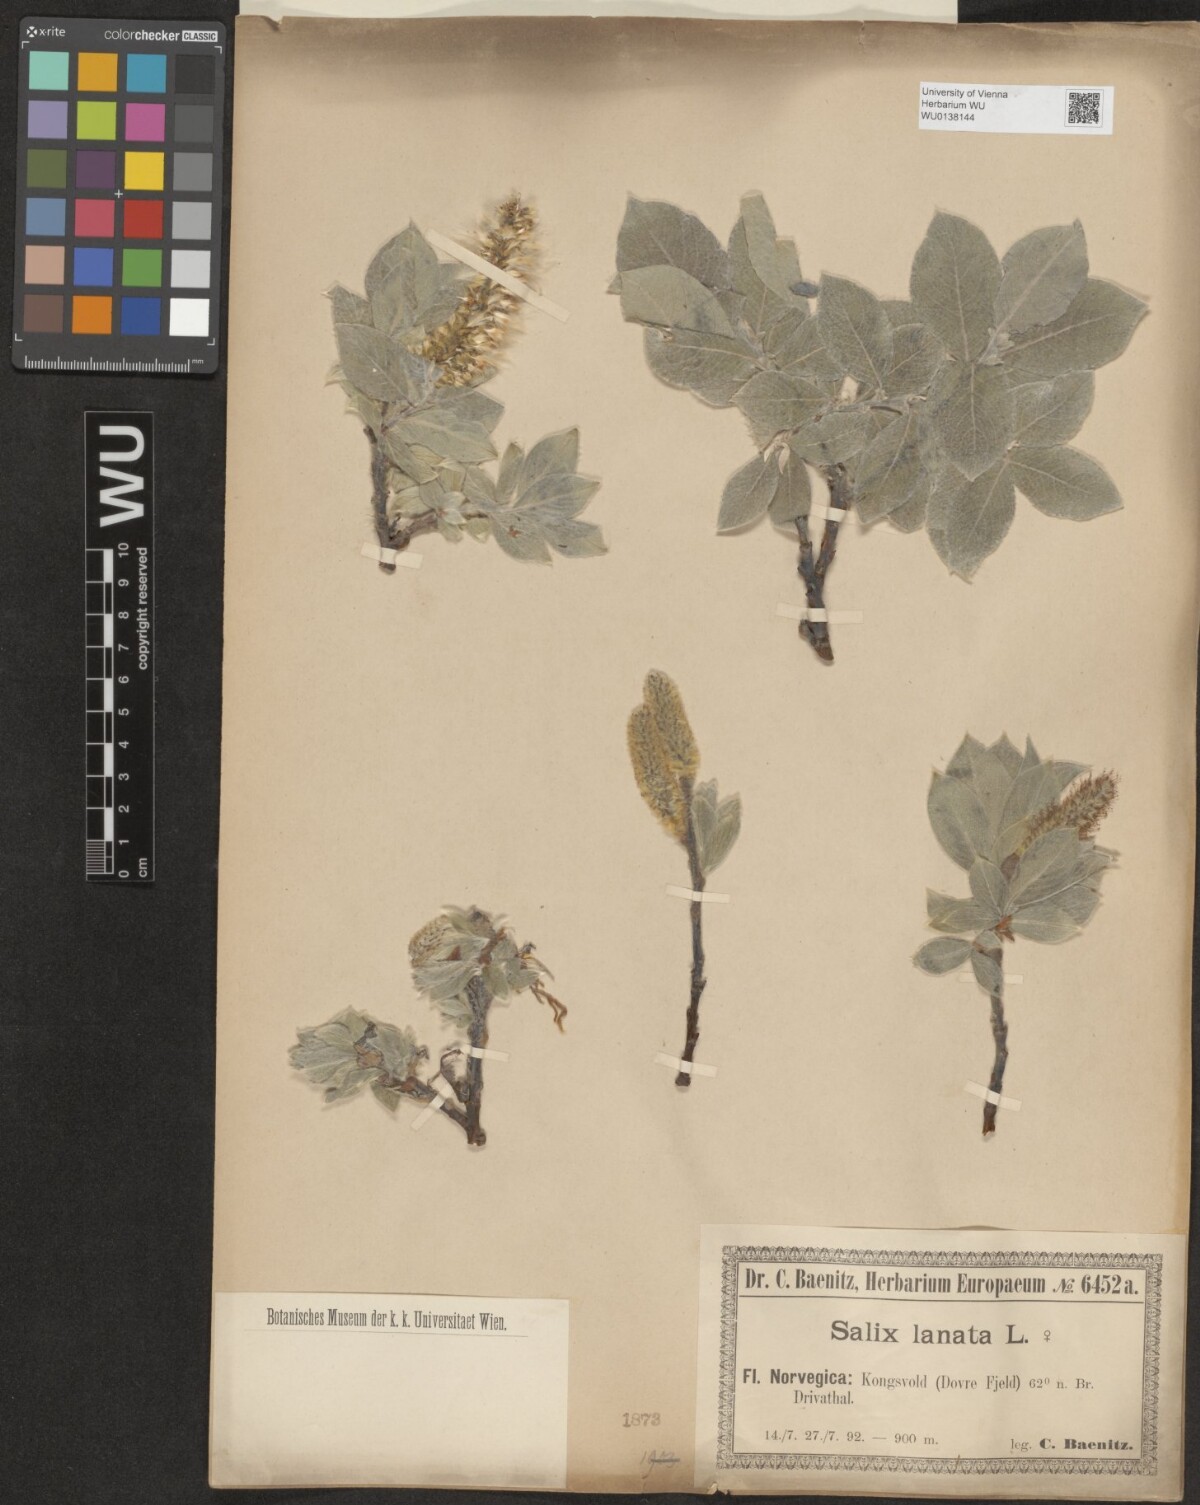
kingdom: Plantae
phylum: Tracheophyta
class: Magnoliopsida
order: Malpighiales
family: Salicaceae
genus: Salix
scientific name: Salix lanata
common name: Woolly willow
